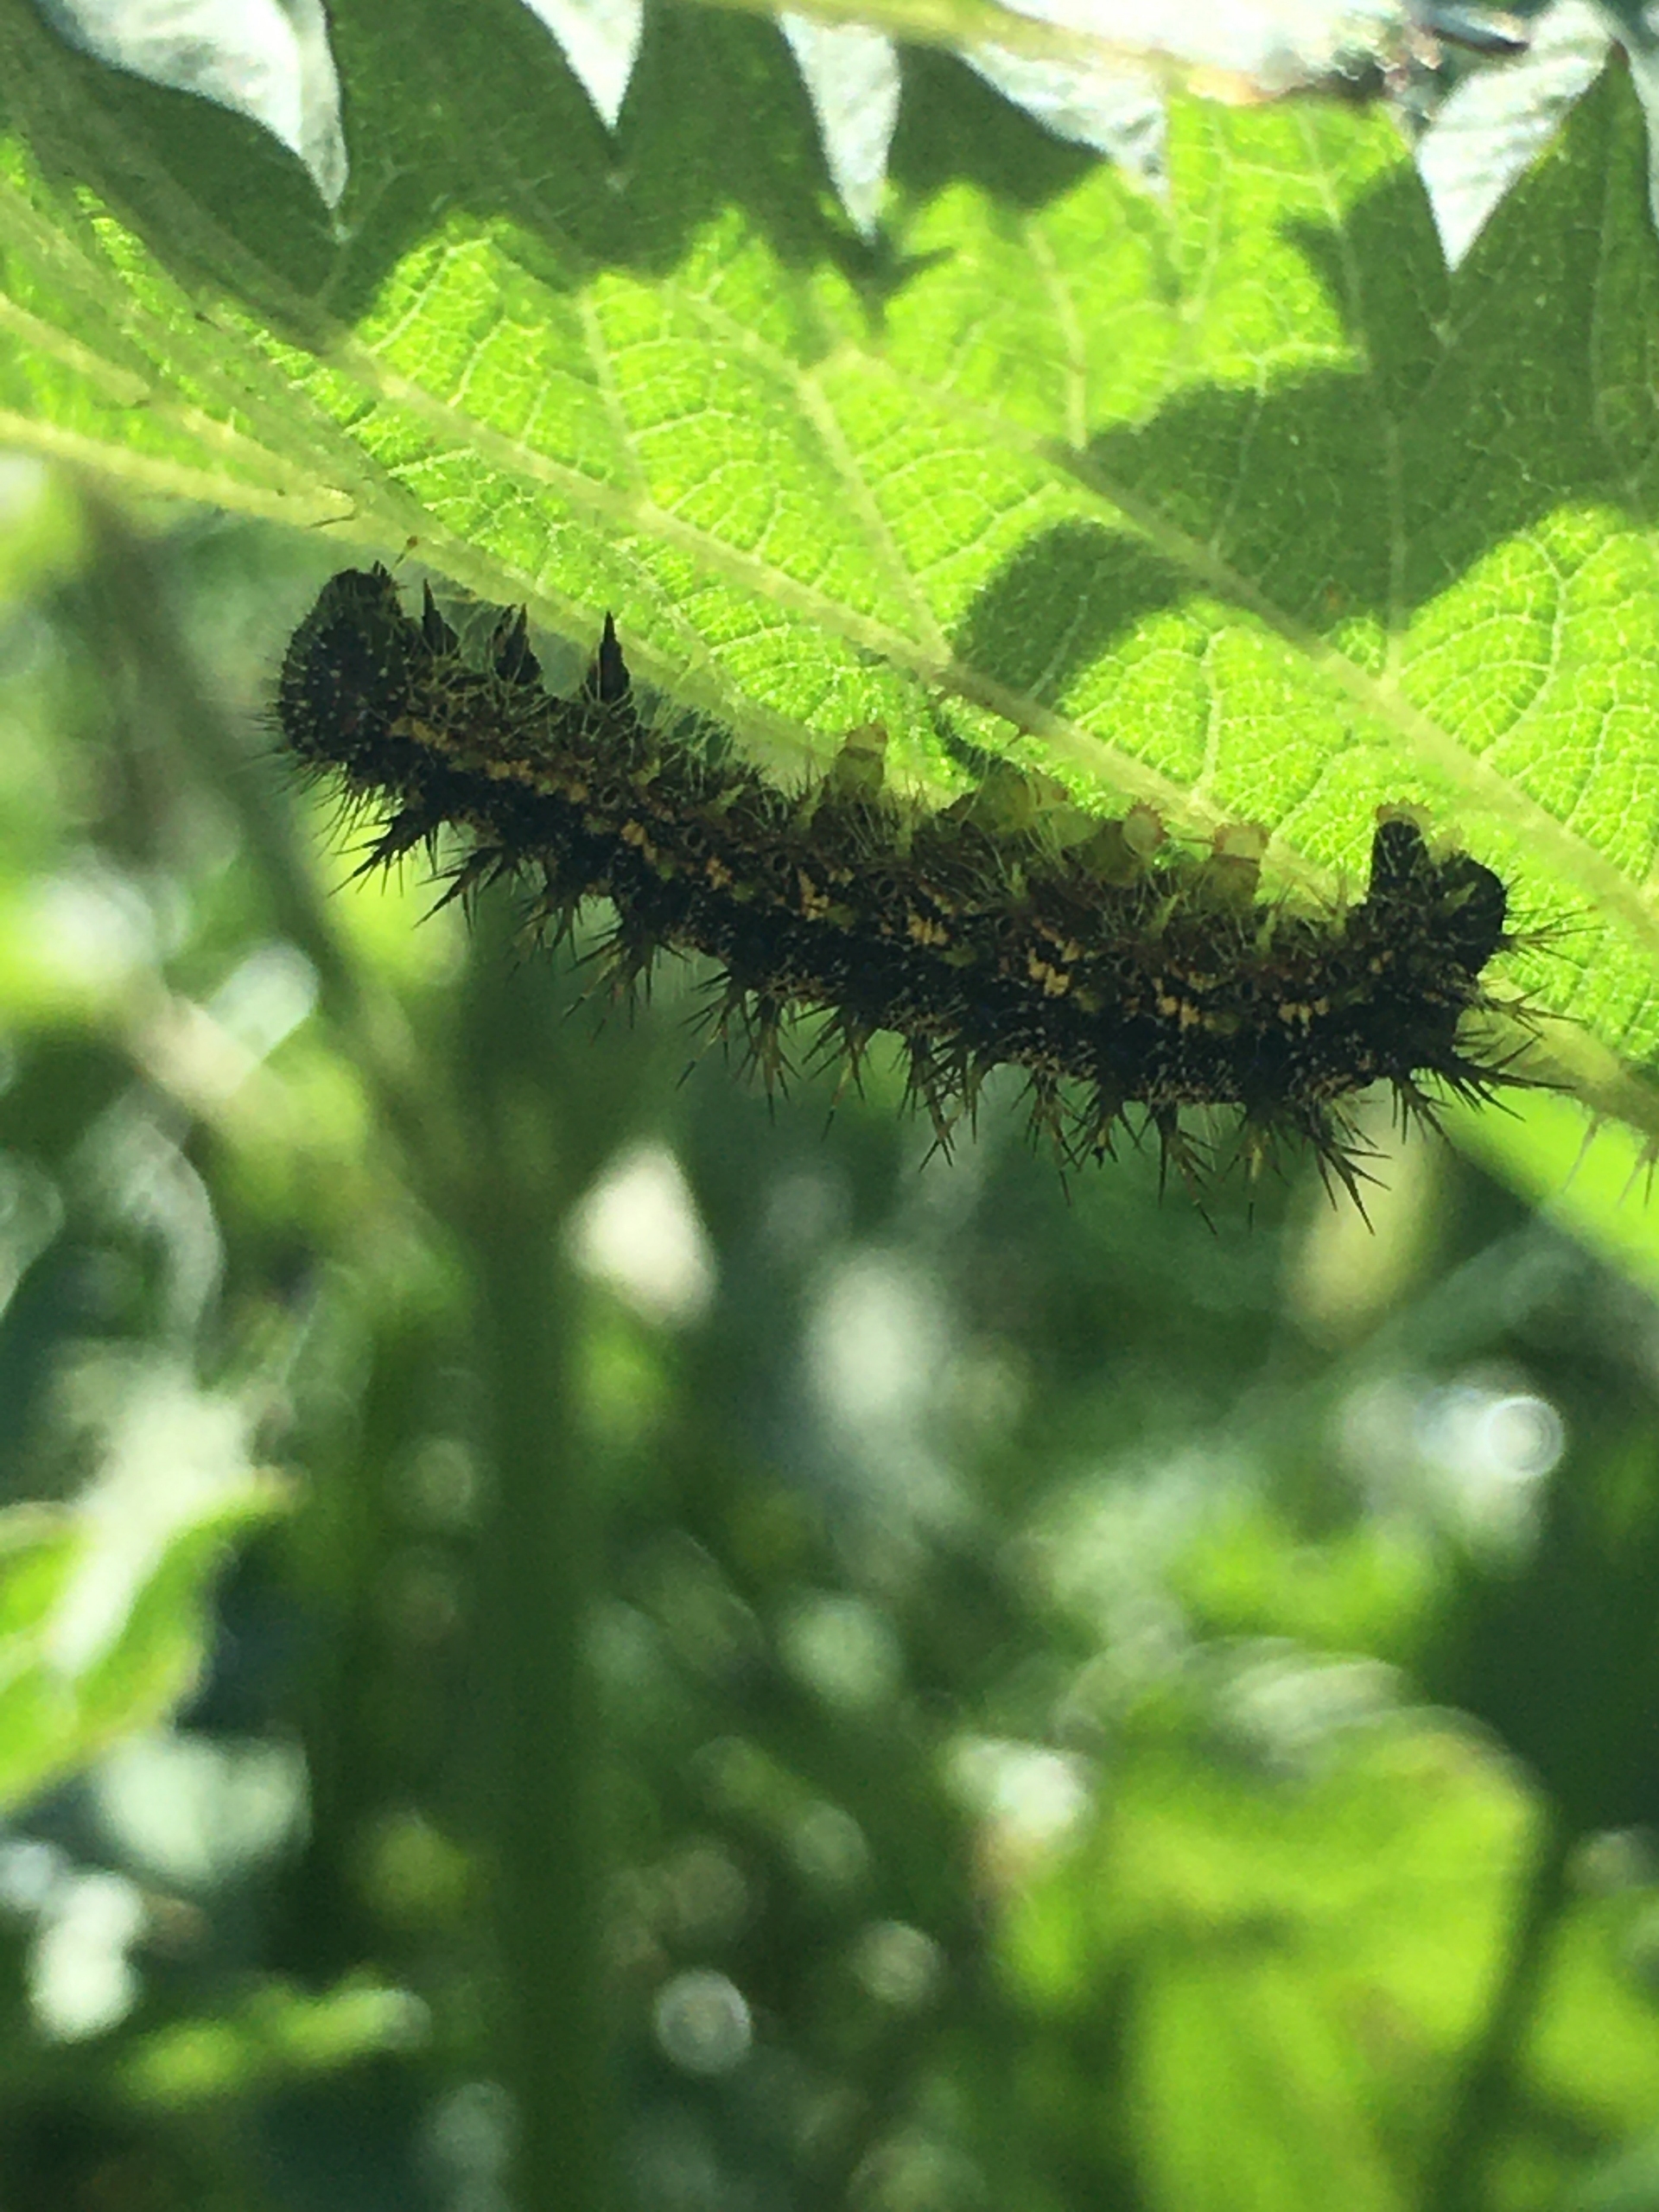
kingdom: Animalia
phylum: Arthropoda
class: Insecta
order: Lepidoptera
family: Nymphalidae
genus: Aglais
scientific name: Aglais urticae
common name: Nældens takvinge
